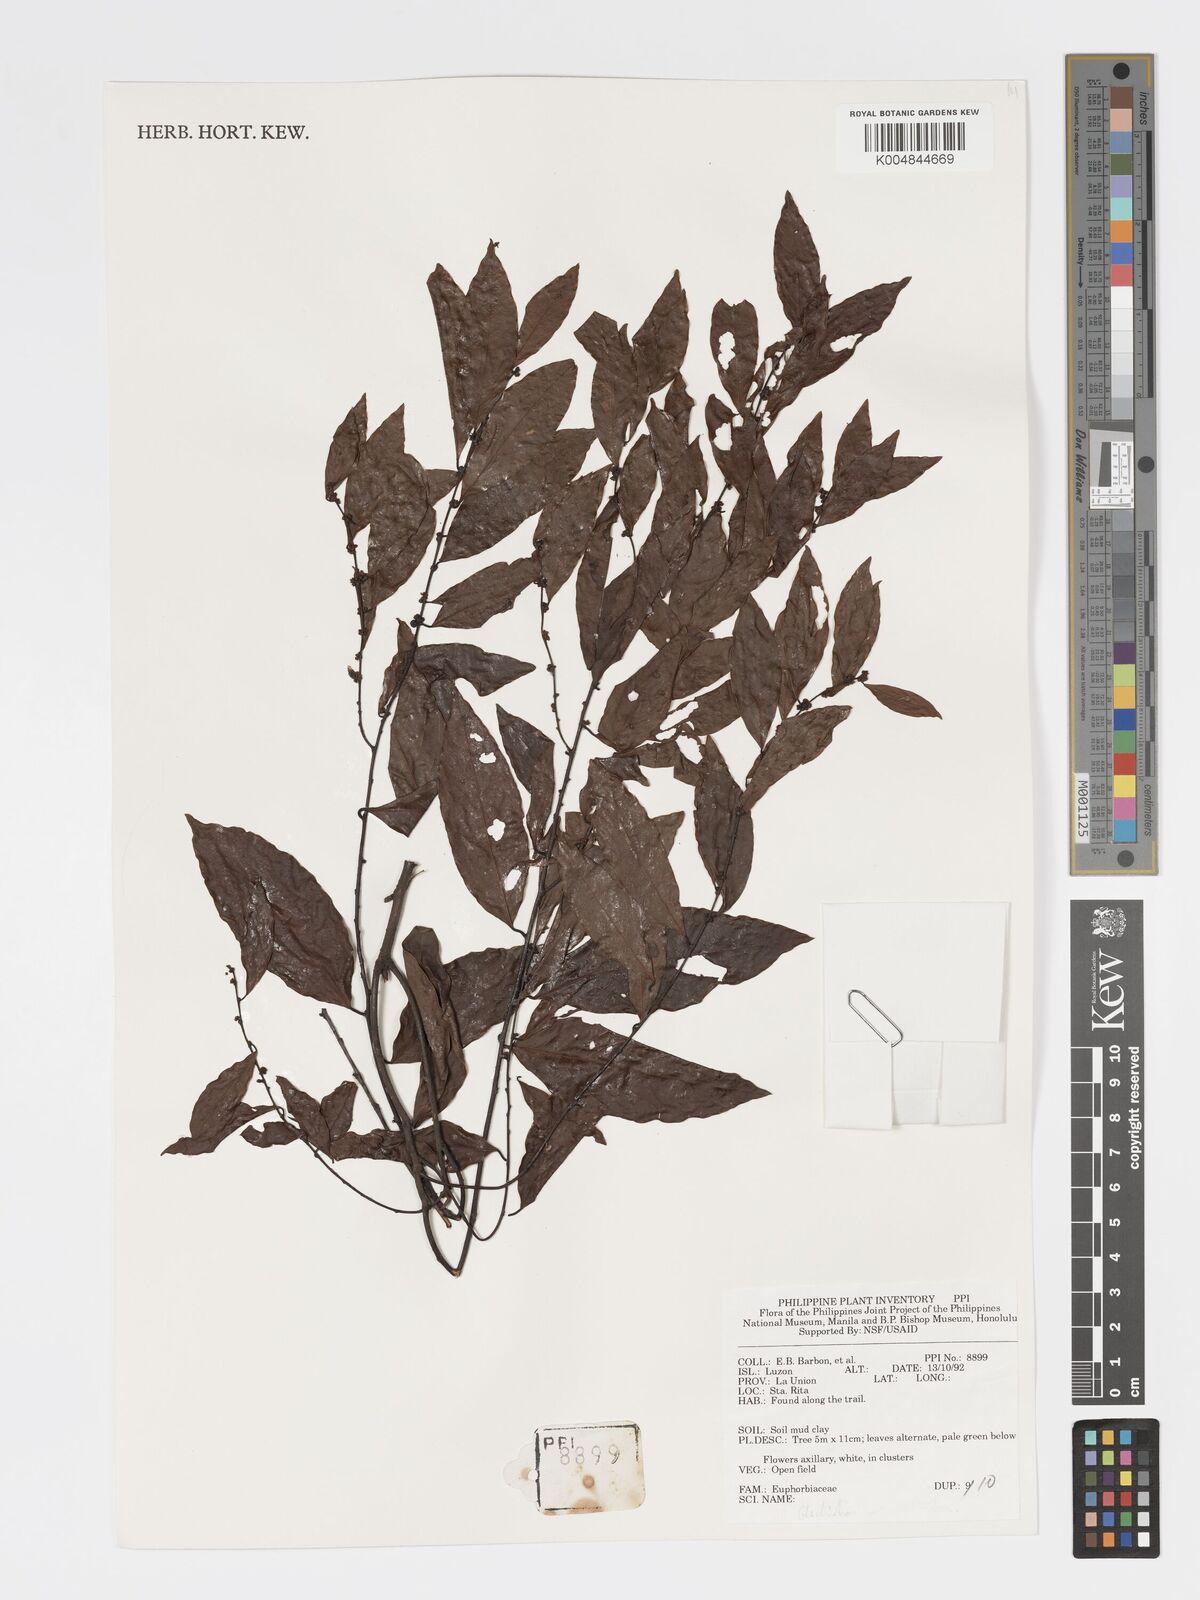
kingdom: Plantae
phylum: Tracheophyta
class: Magnoliopsida
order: Malpighiales
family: Phyllanthaceae
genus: Glochidion
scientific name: Glochidion
